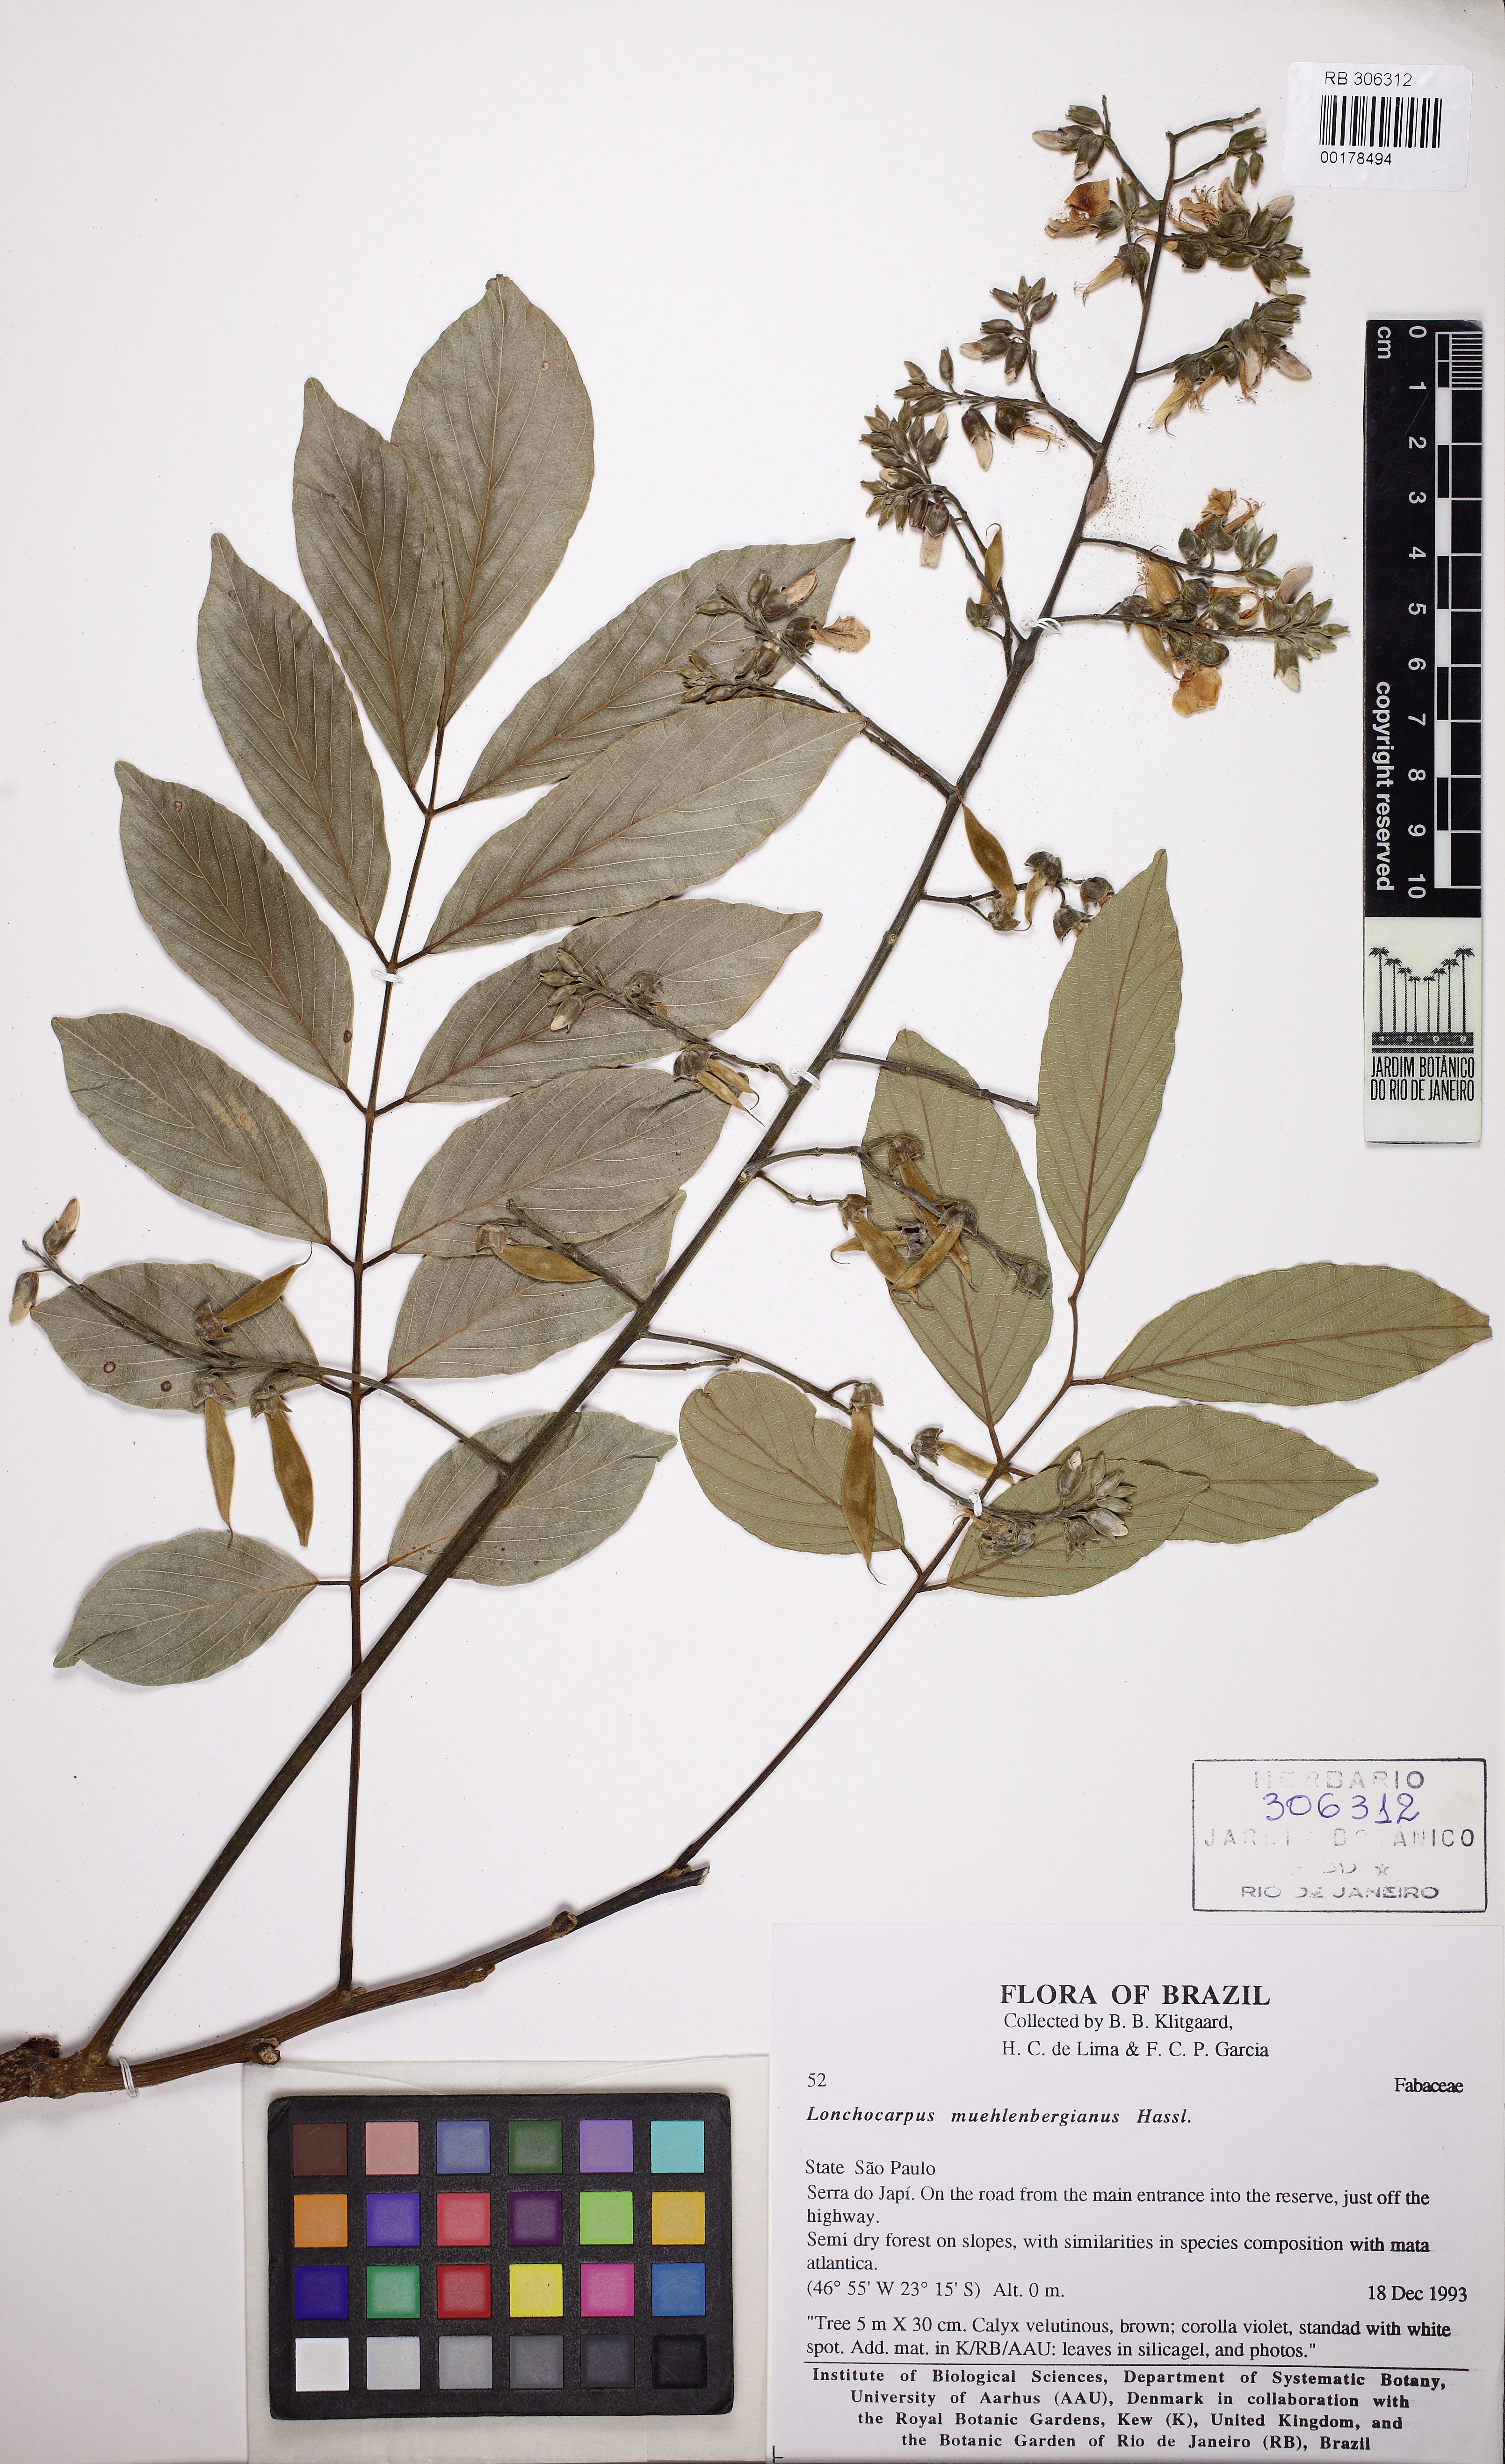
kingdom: Plantae
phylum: Tracheophyta
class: Magnoliopsida
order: Fabales
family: Fabaceae
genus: Dahlstedtia
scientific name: Dahlstedtia muehlbergiana
